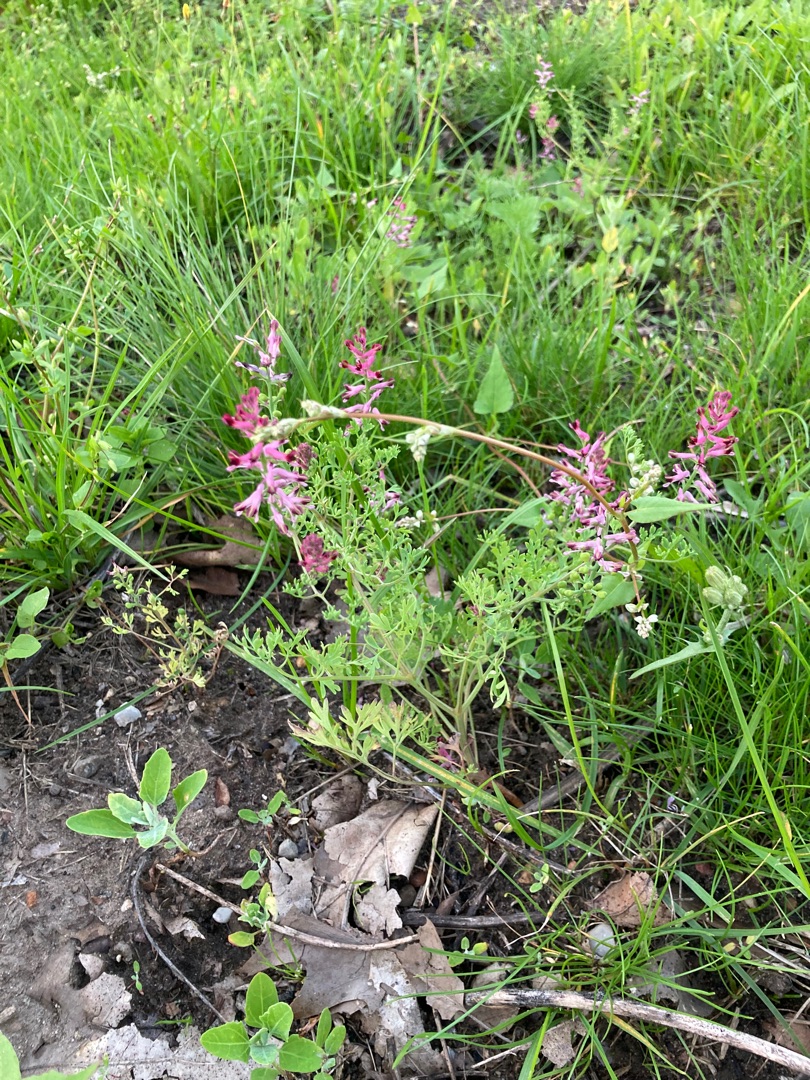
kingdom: Plantae
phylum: Tracheophyta
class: Magnoliopsida
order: Ranunculales
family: Papaveraceae
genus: Fumaria
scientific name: Fumaria officinalis
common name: Læge-jordrøg
